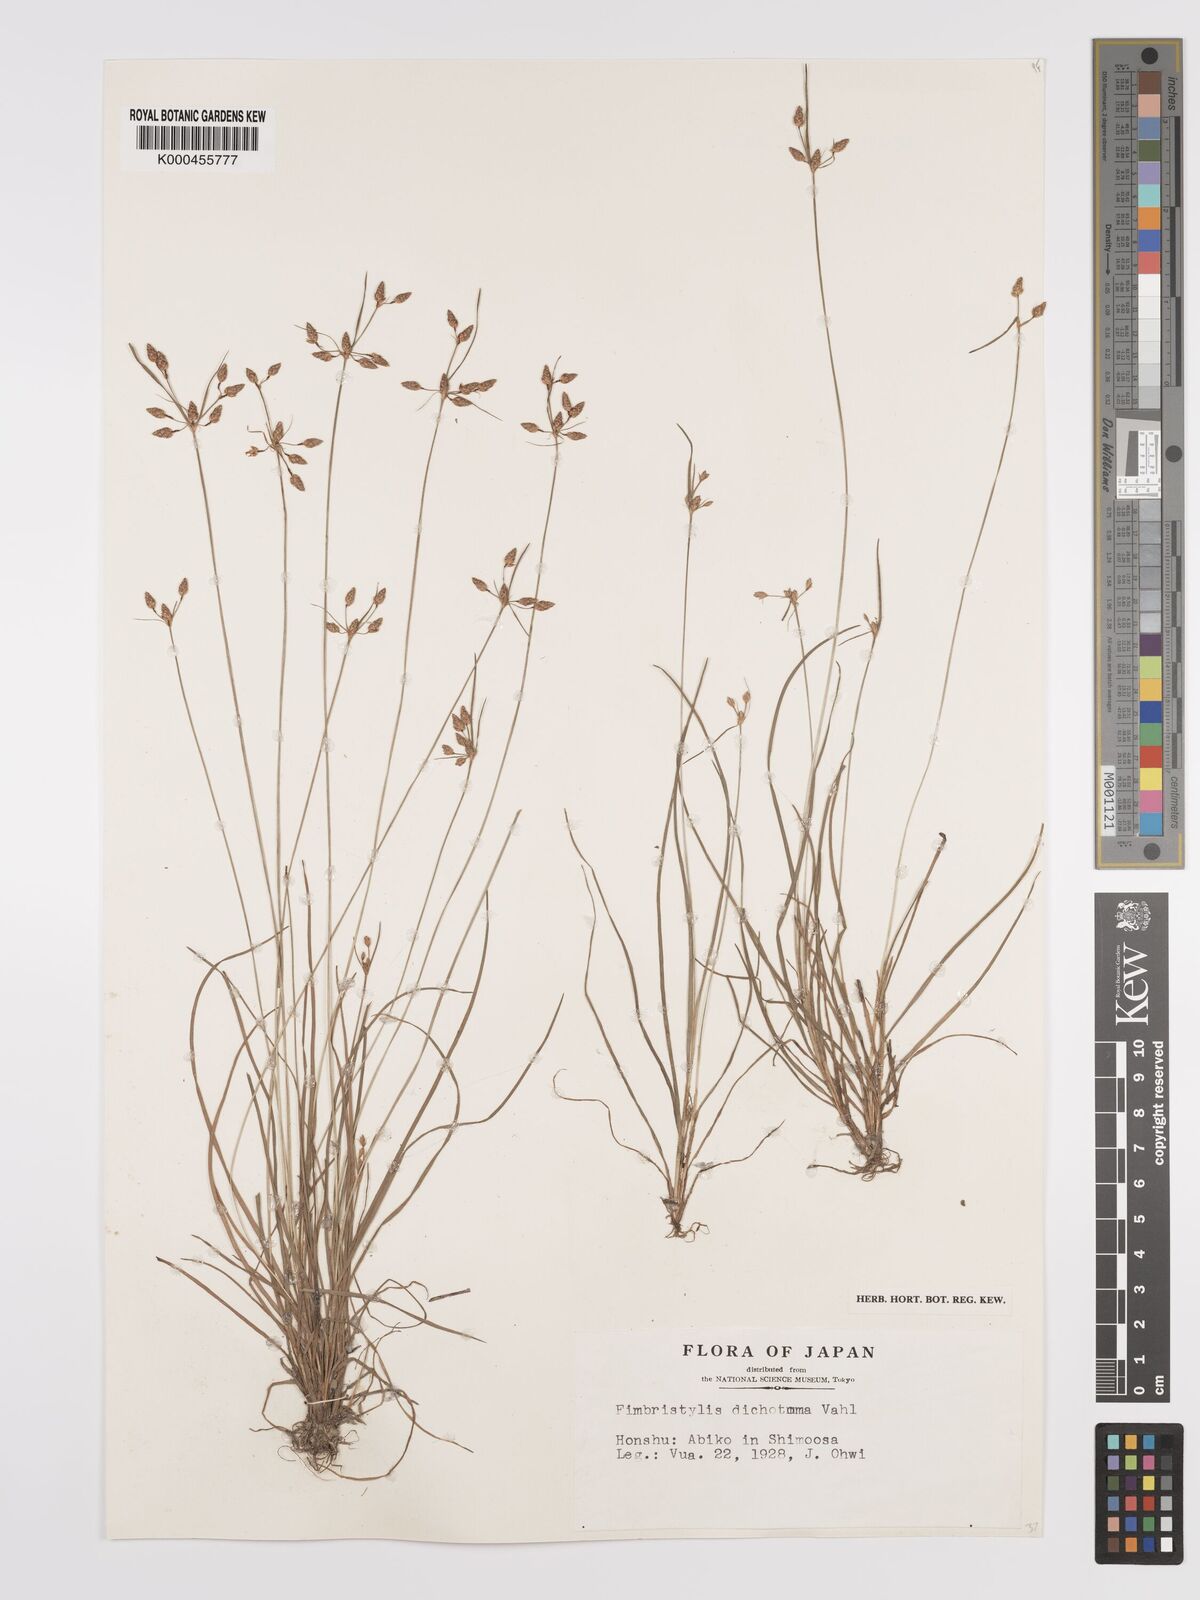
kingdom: Plantae
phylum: Tracheophyta
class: Liliopsida
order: Poales
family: Cyperaceae
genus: Fimbristylis
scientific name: Fimbristylis dichotoma
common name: Forked fimbry
